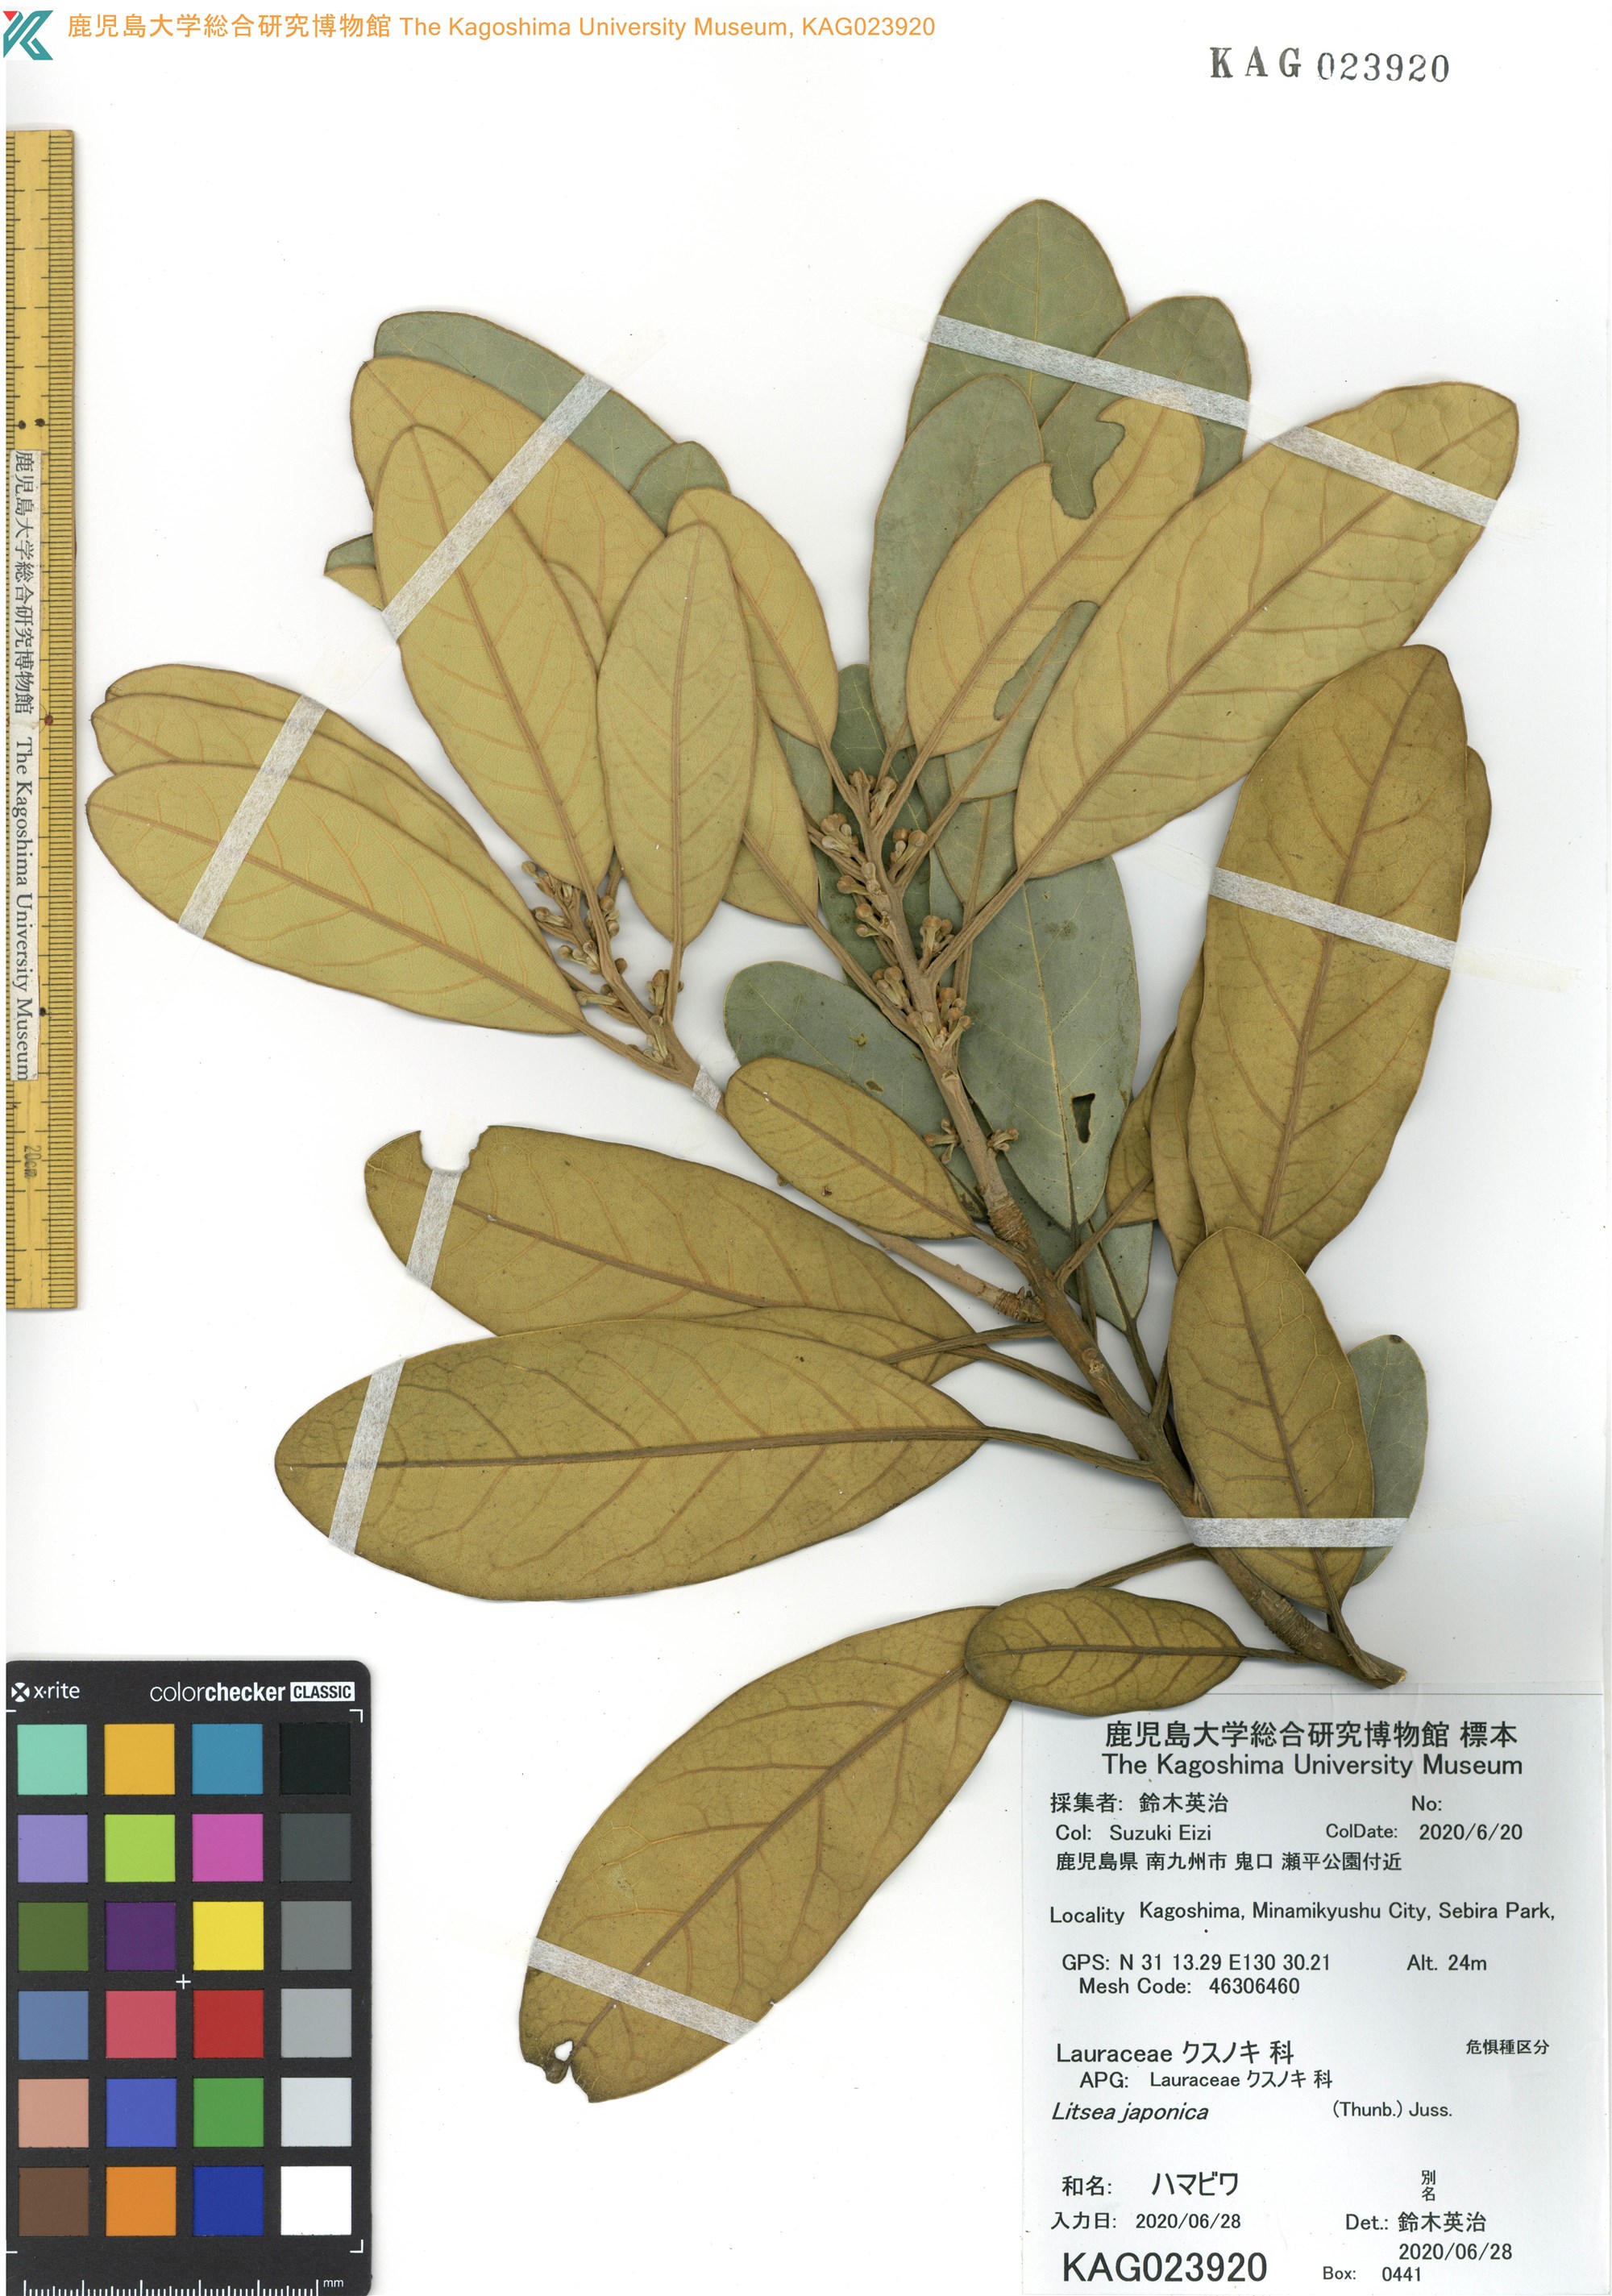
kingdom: Plantae
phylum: Tracheophyta
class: Magnoliopsida
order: Laurales
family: Lauraceae
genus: Litsea
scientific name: Litsea japonica
